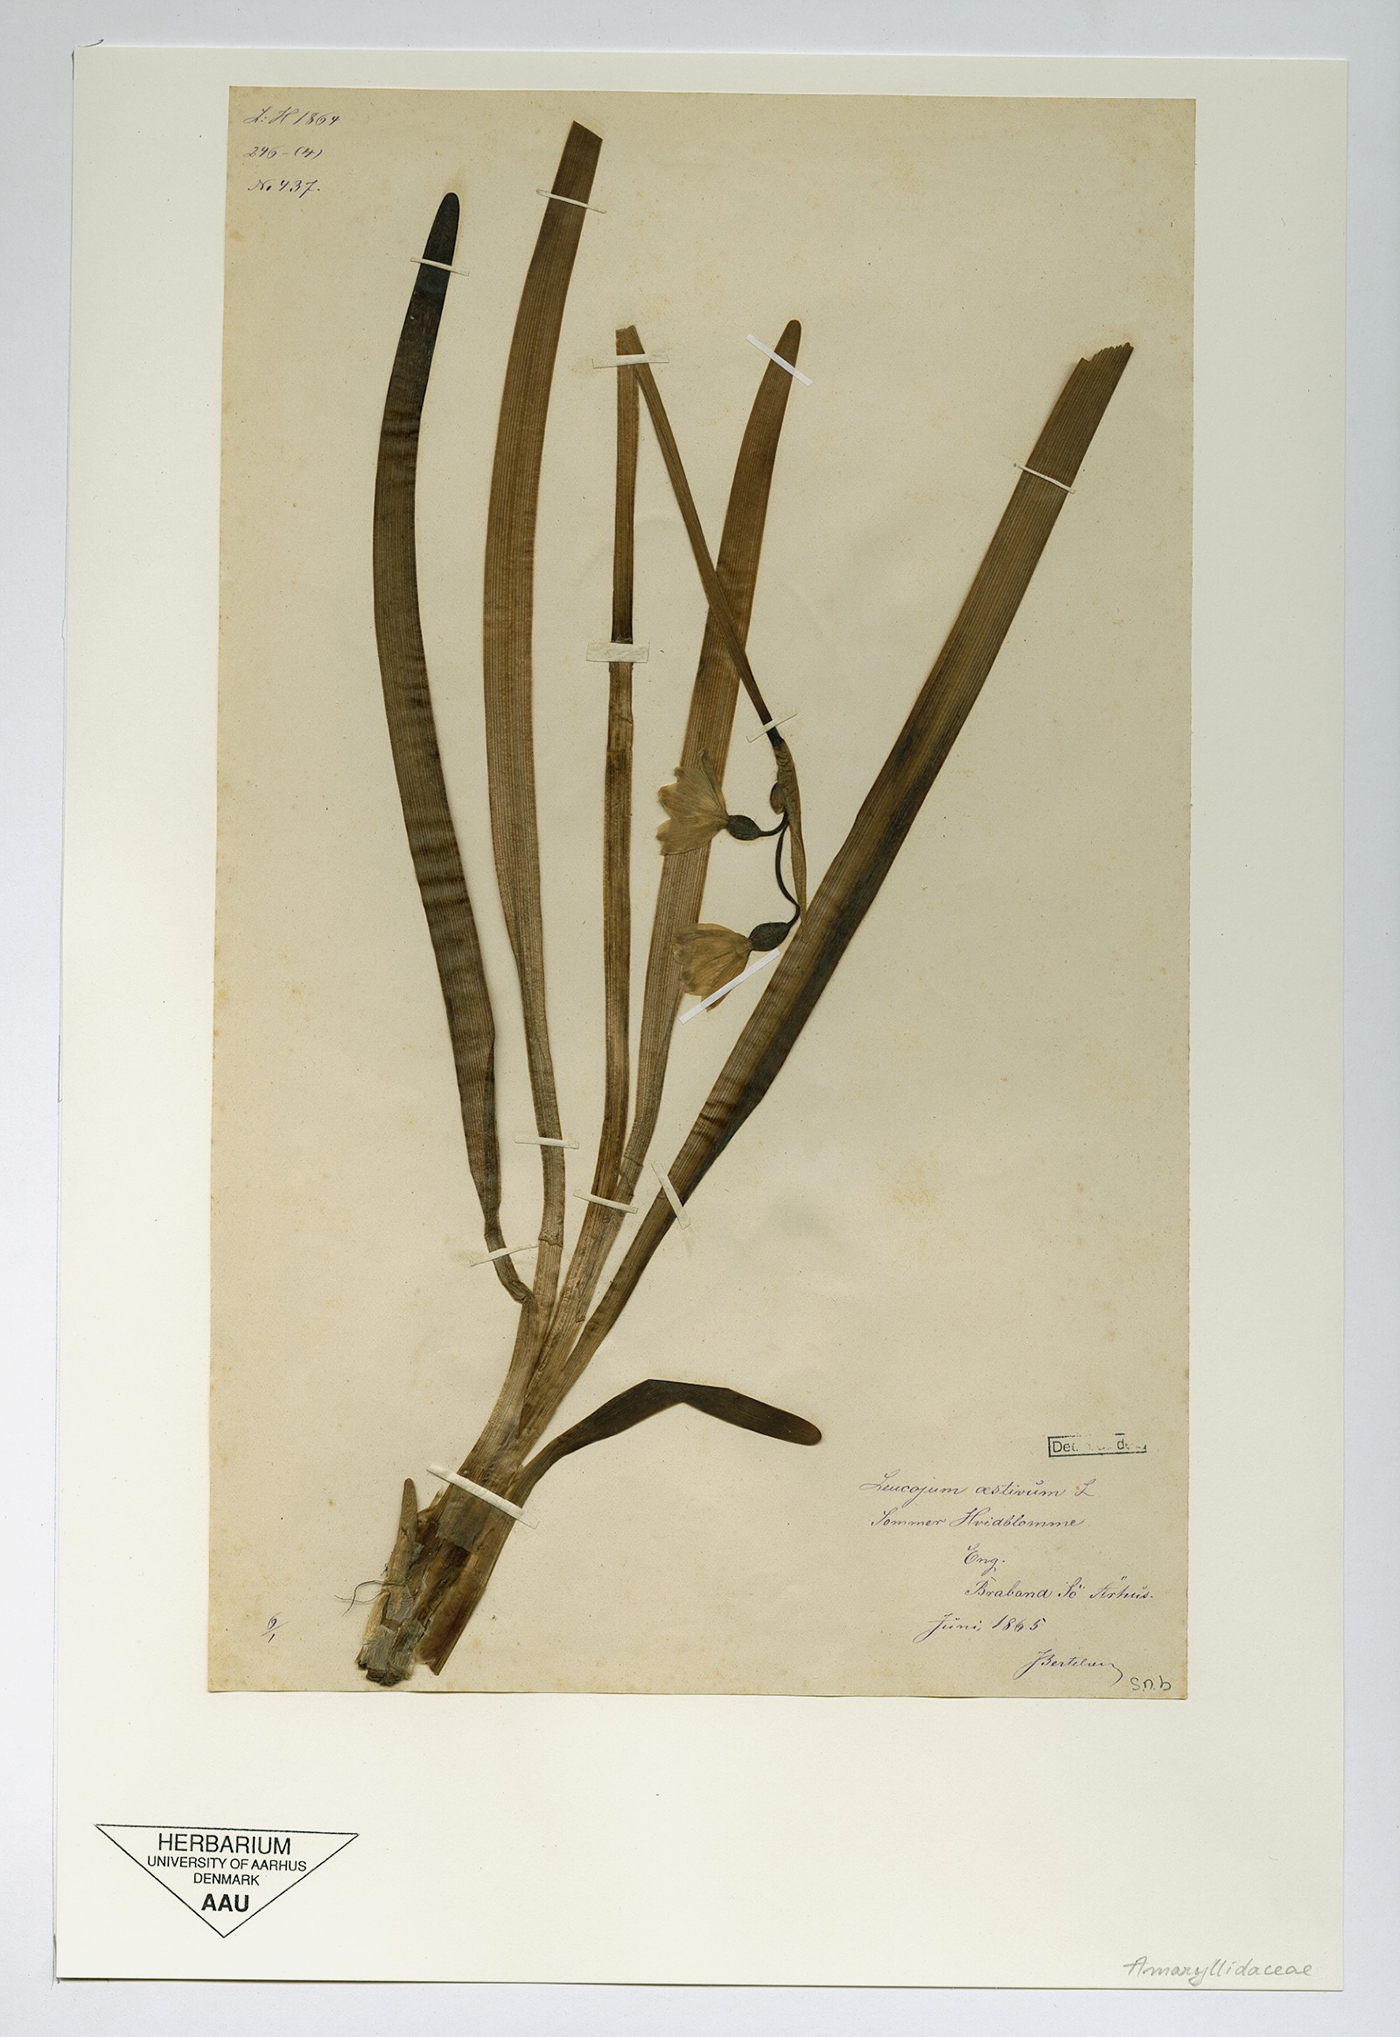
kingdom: Plantae
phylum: Tracheophyta
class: Liliopsida
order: Asparagales
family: Amaryllidaceae
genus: Leucojum
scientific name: Leucojum aestivum
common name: Summer snowflake
